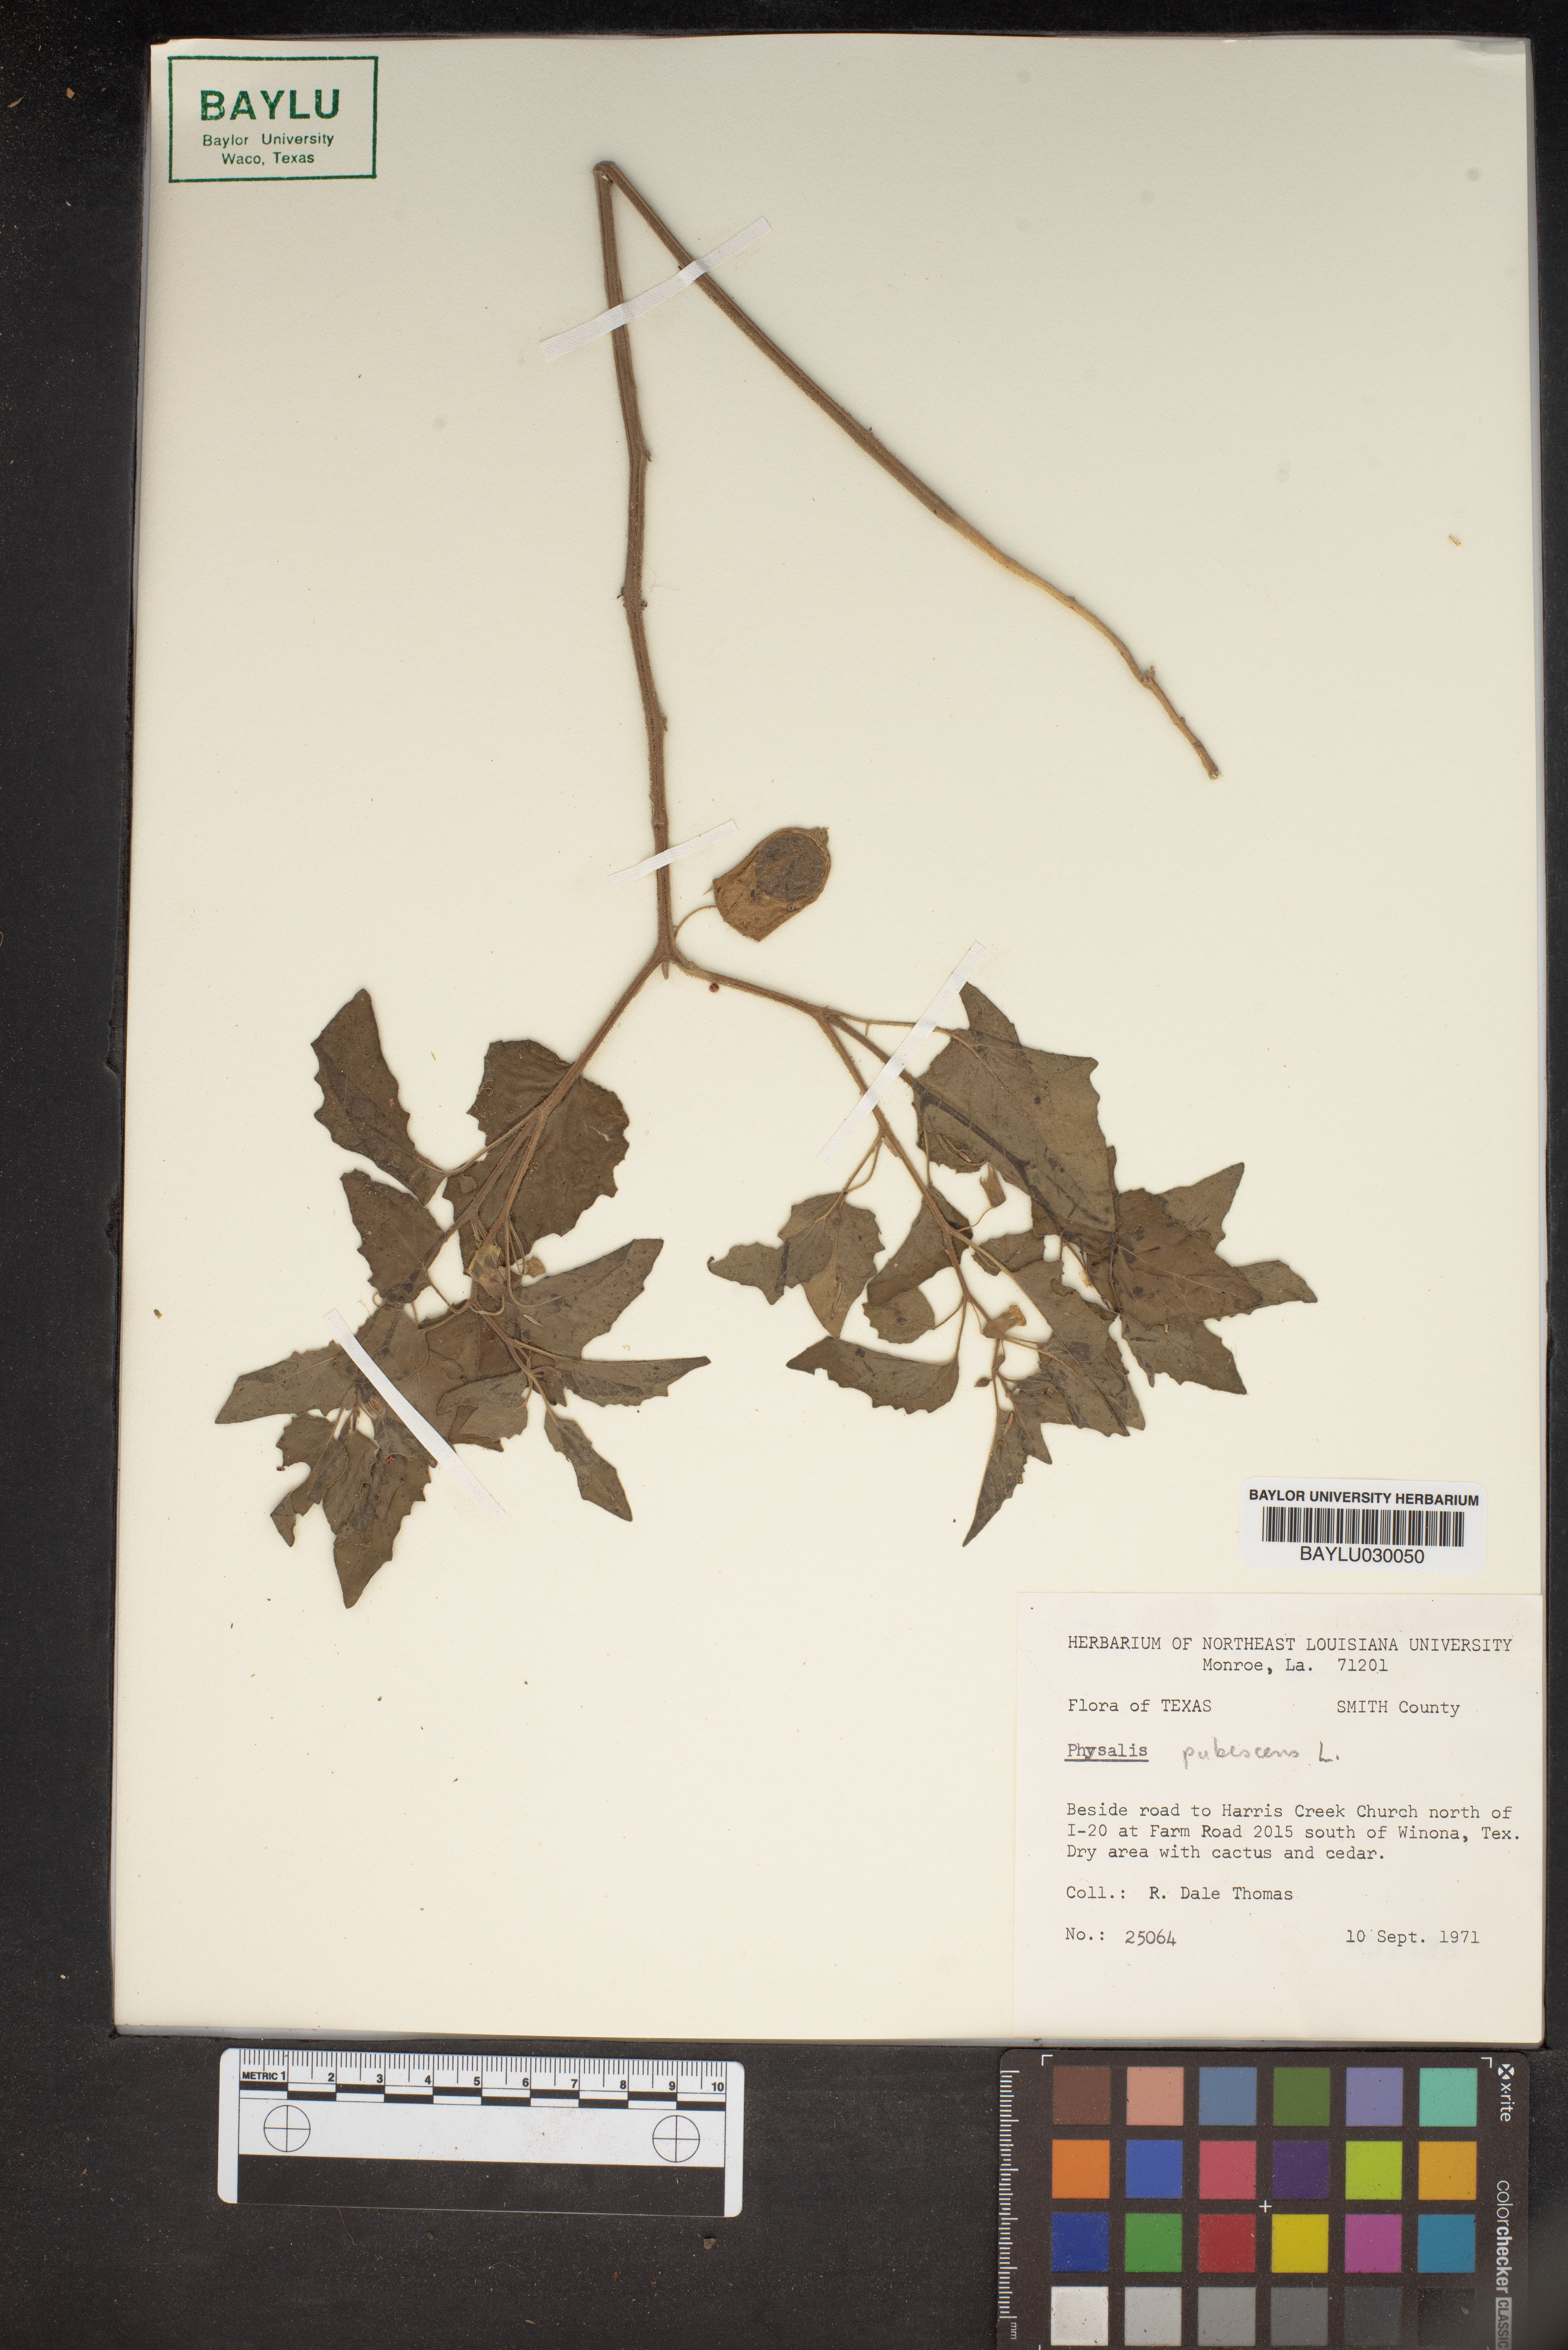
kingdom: Plantae
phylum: Tracheophyta
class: Magnoliopsida
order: Solanales
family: Solanaceae
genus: Physalis
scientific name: Physalis pubescens
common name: Downy ground-cherry
